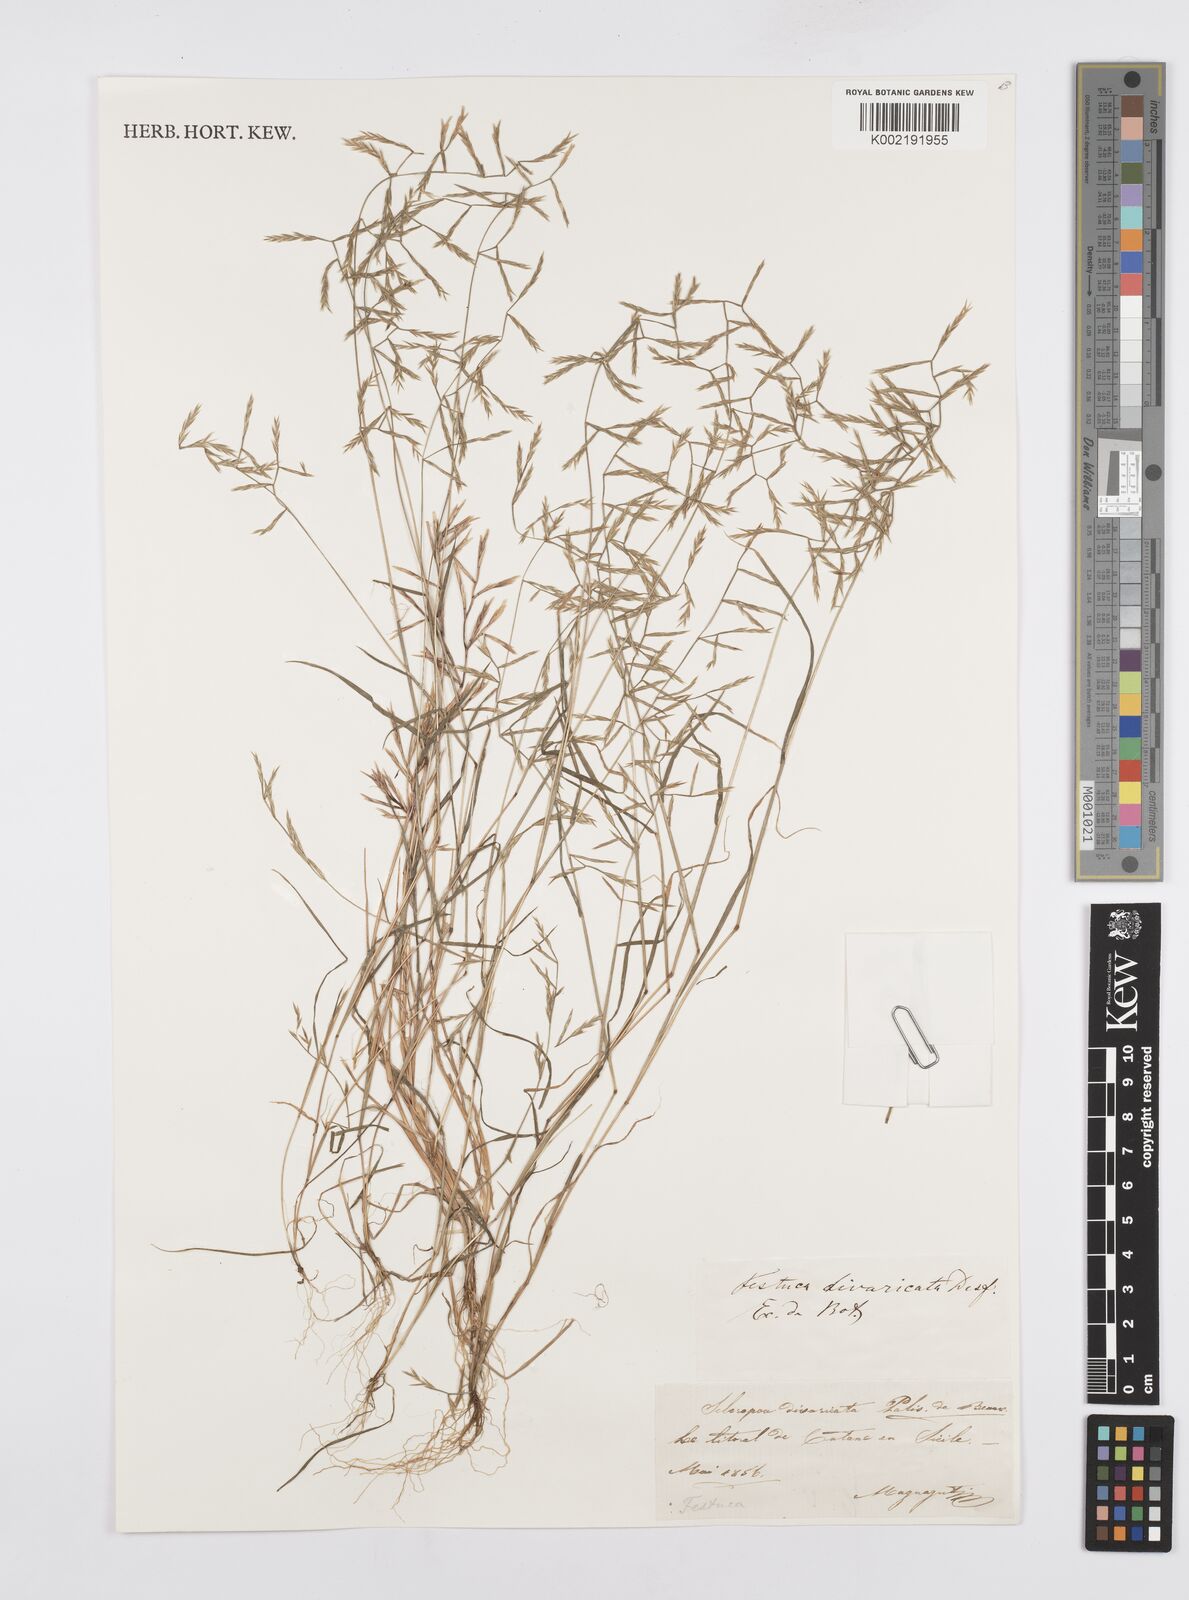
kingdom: Plantae
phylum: Tracheophyta
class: Liliopsida
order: Poales
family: Poaceae
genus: Cutandia
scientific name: Cutandia divaricata
